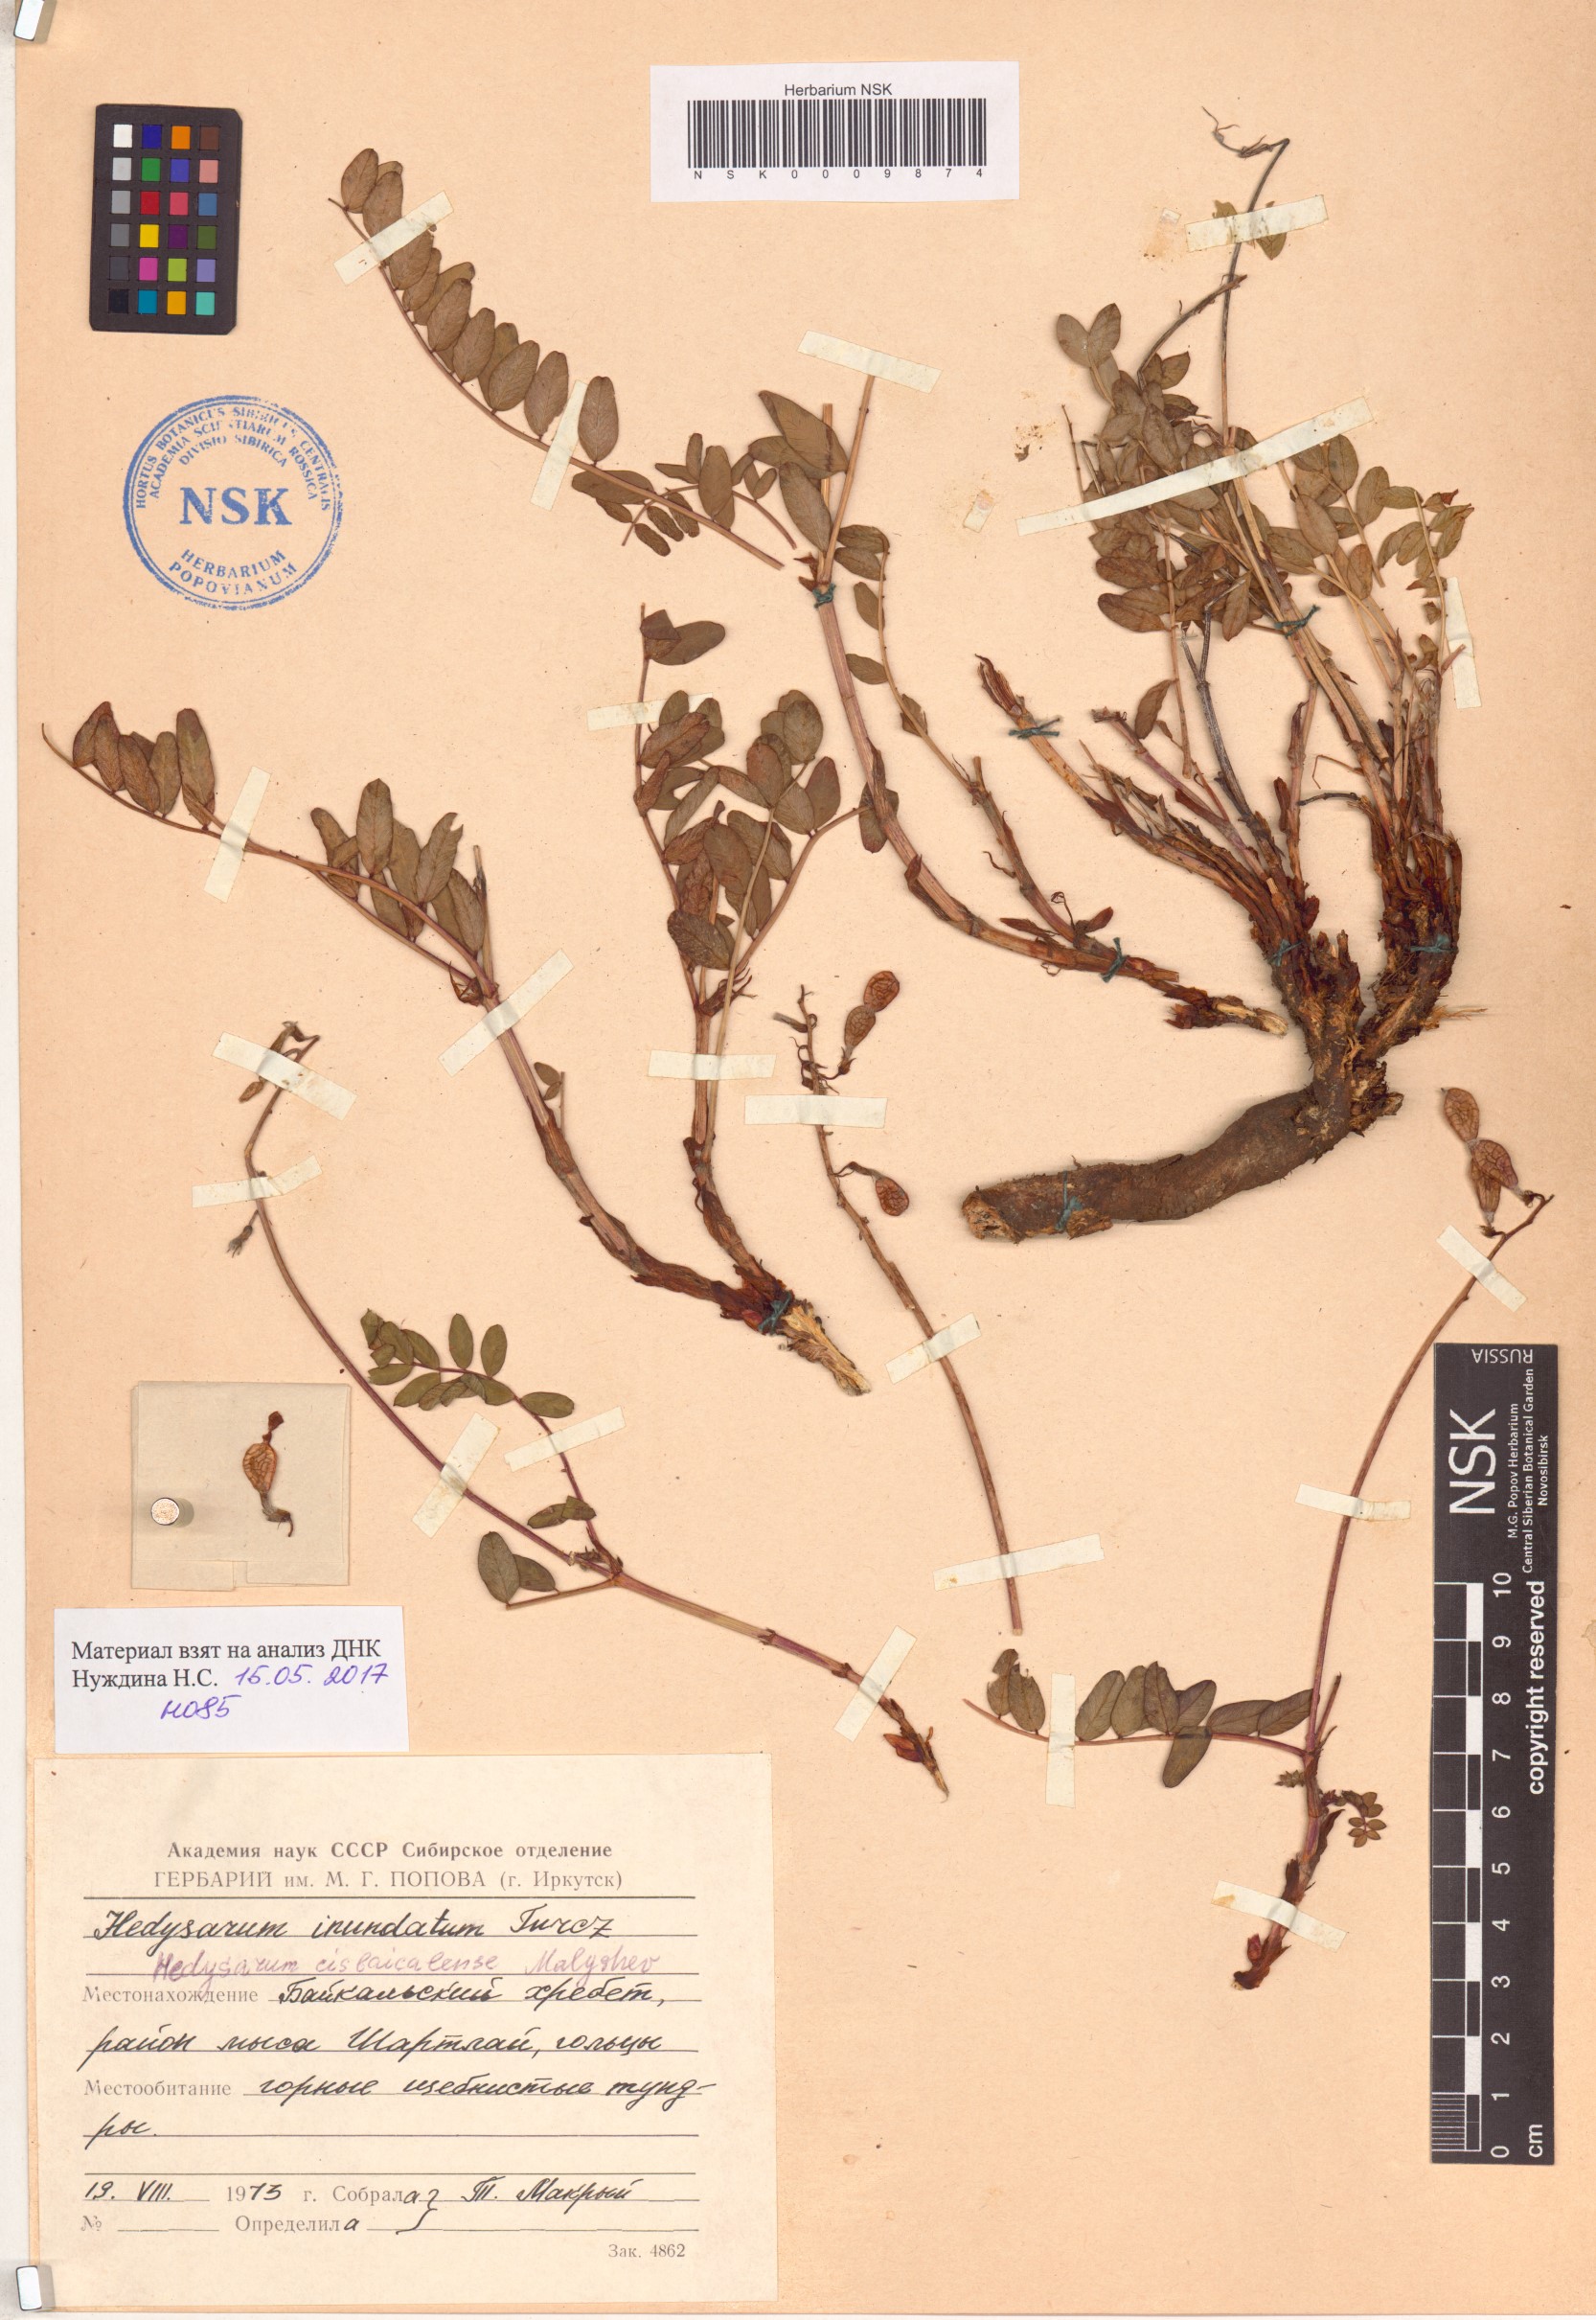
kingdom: Plantae
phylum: Tracheophyta
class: Magnoliopsida
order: Fabales
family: Fabaceae
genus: Hedysarum
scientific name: Hedysarum cisbaicalense
